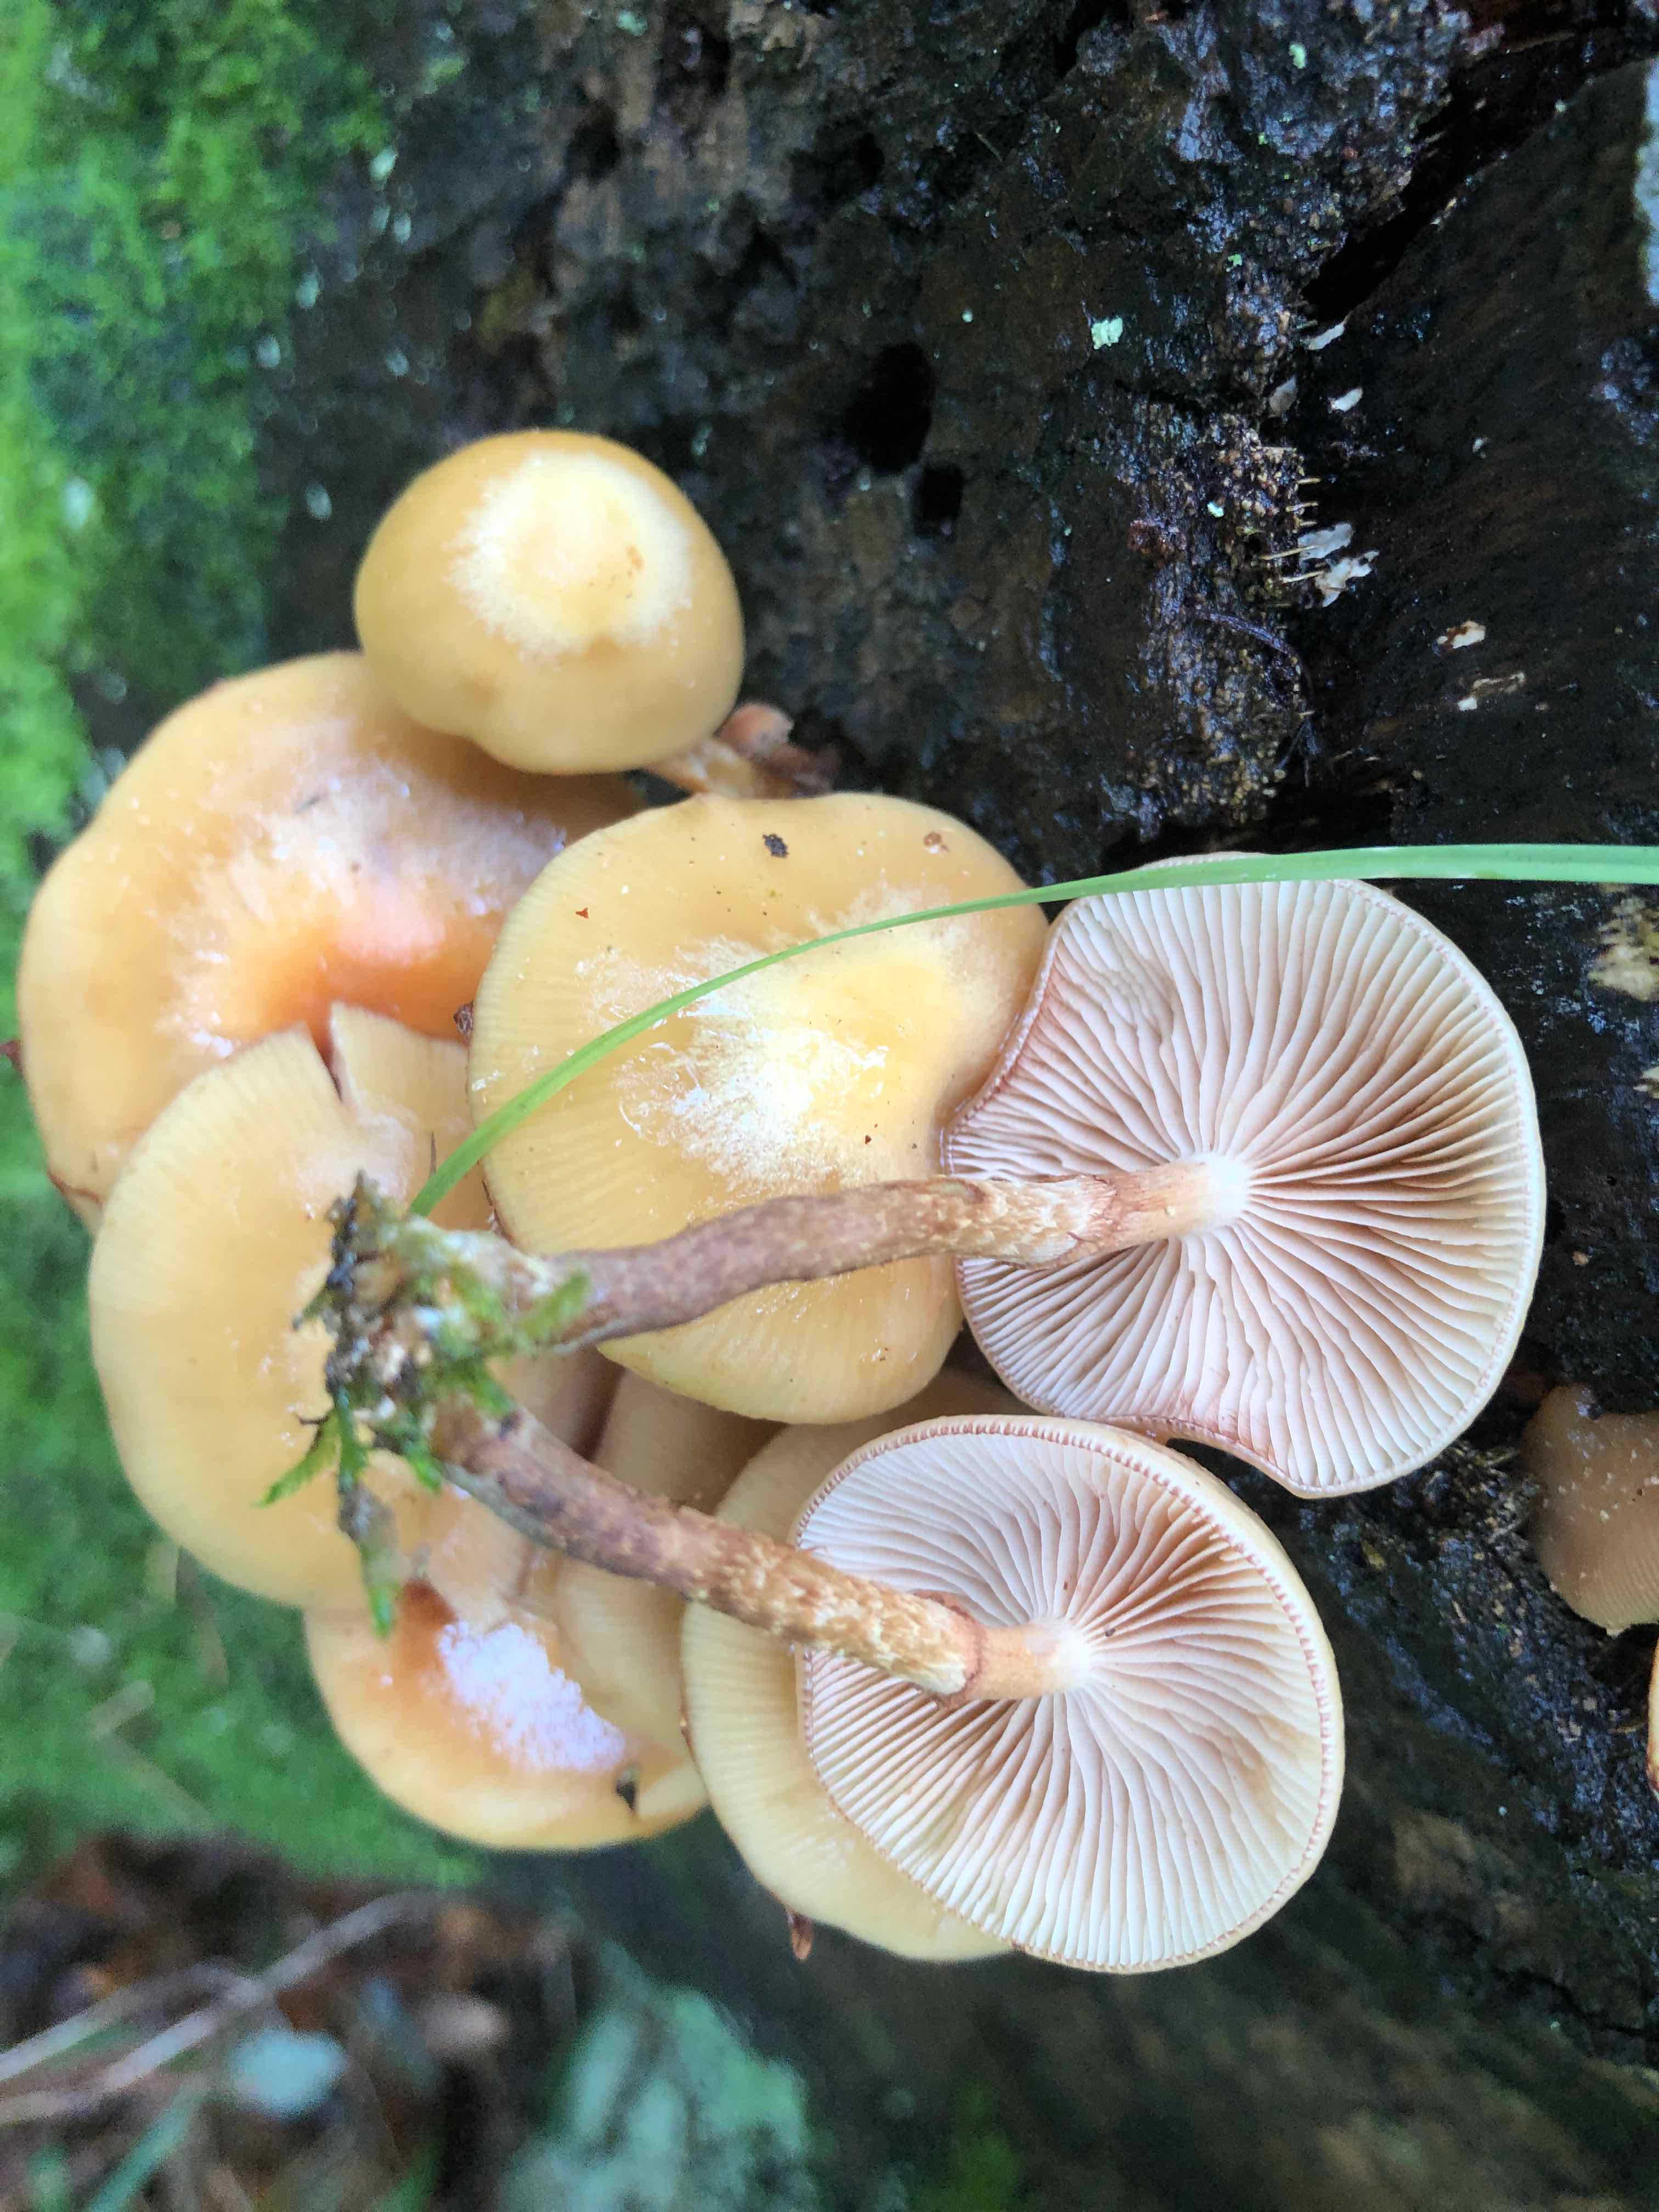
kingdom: Fungi
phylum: Basidiomycota
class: Agaricomycetes
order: Agaricales
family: Strophariaceae
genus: Kuehneromyces
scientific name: Kuehneromyces mutabilis
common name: foranderlig skælhat
